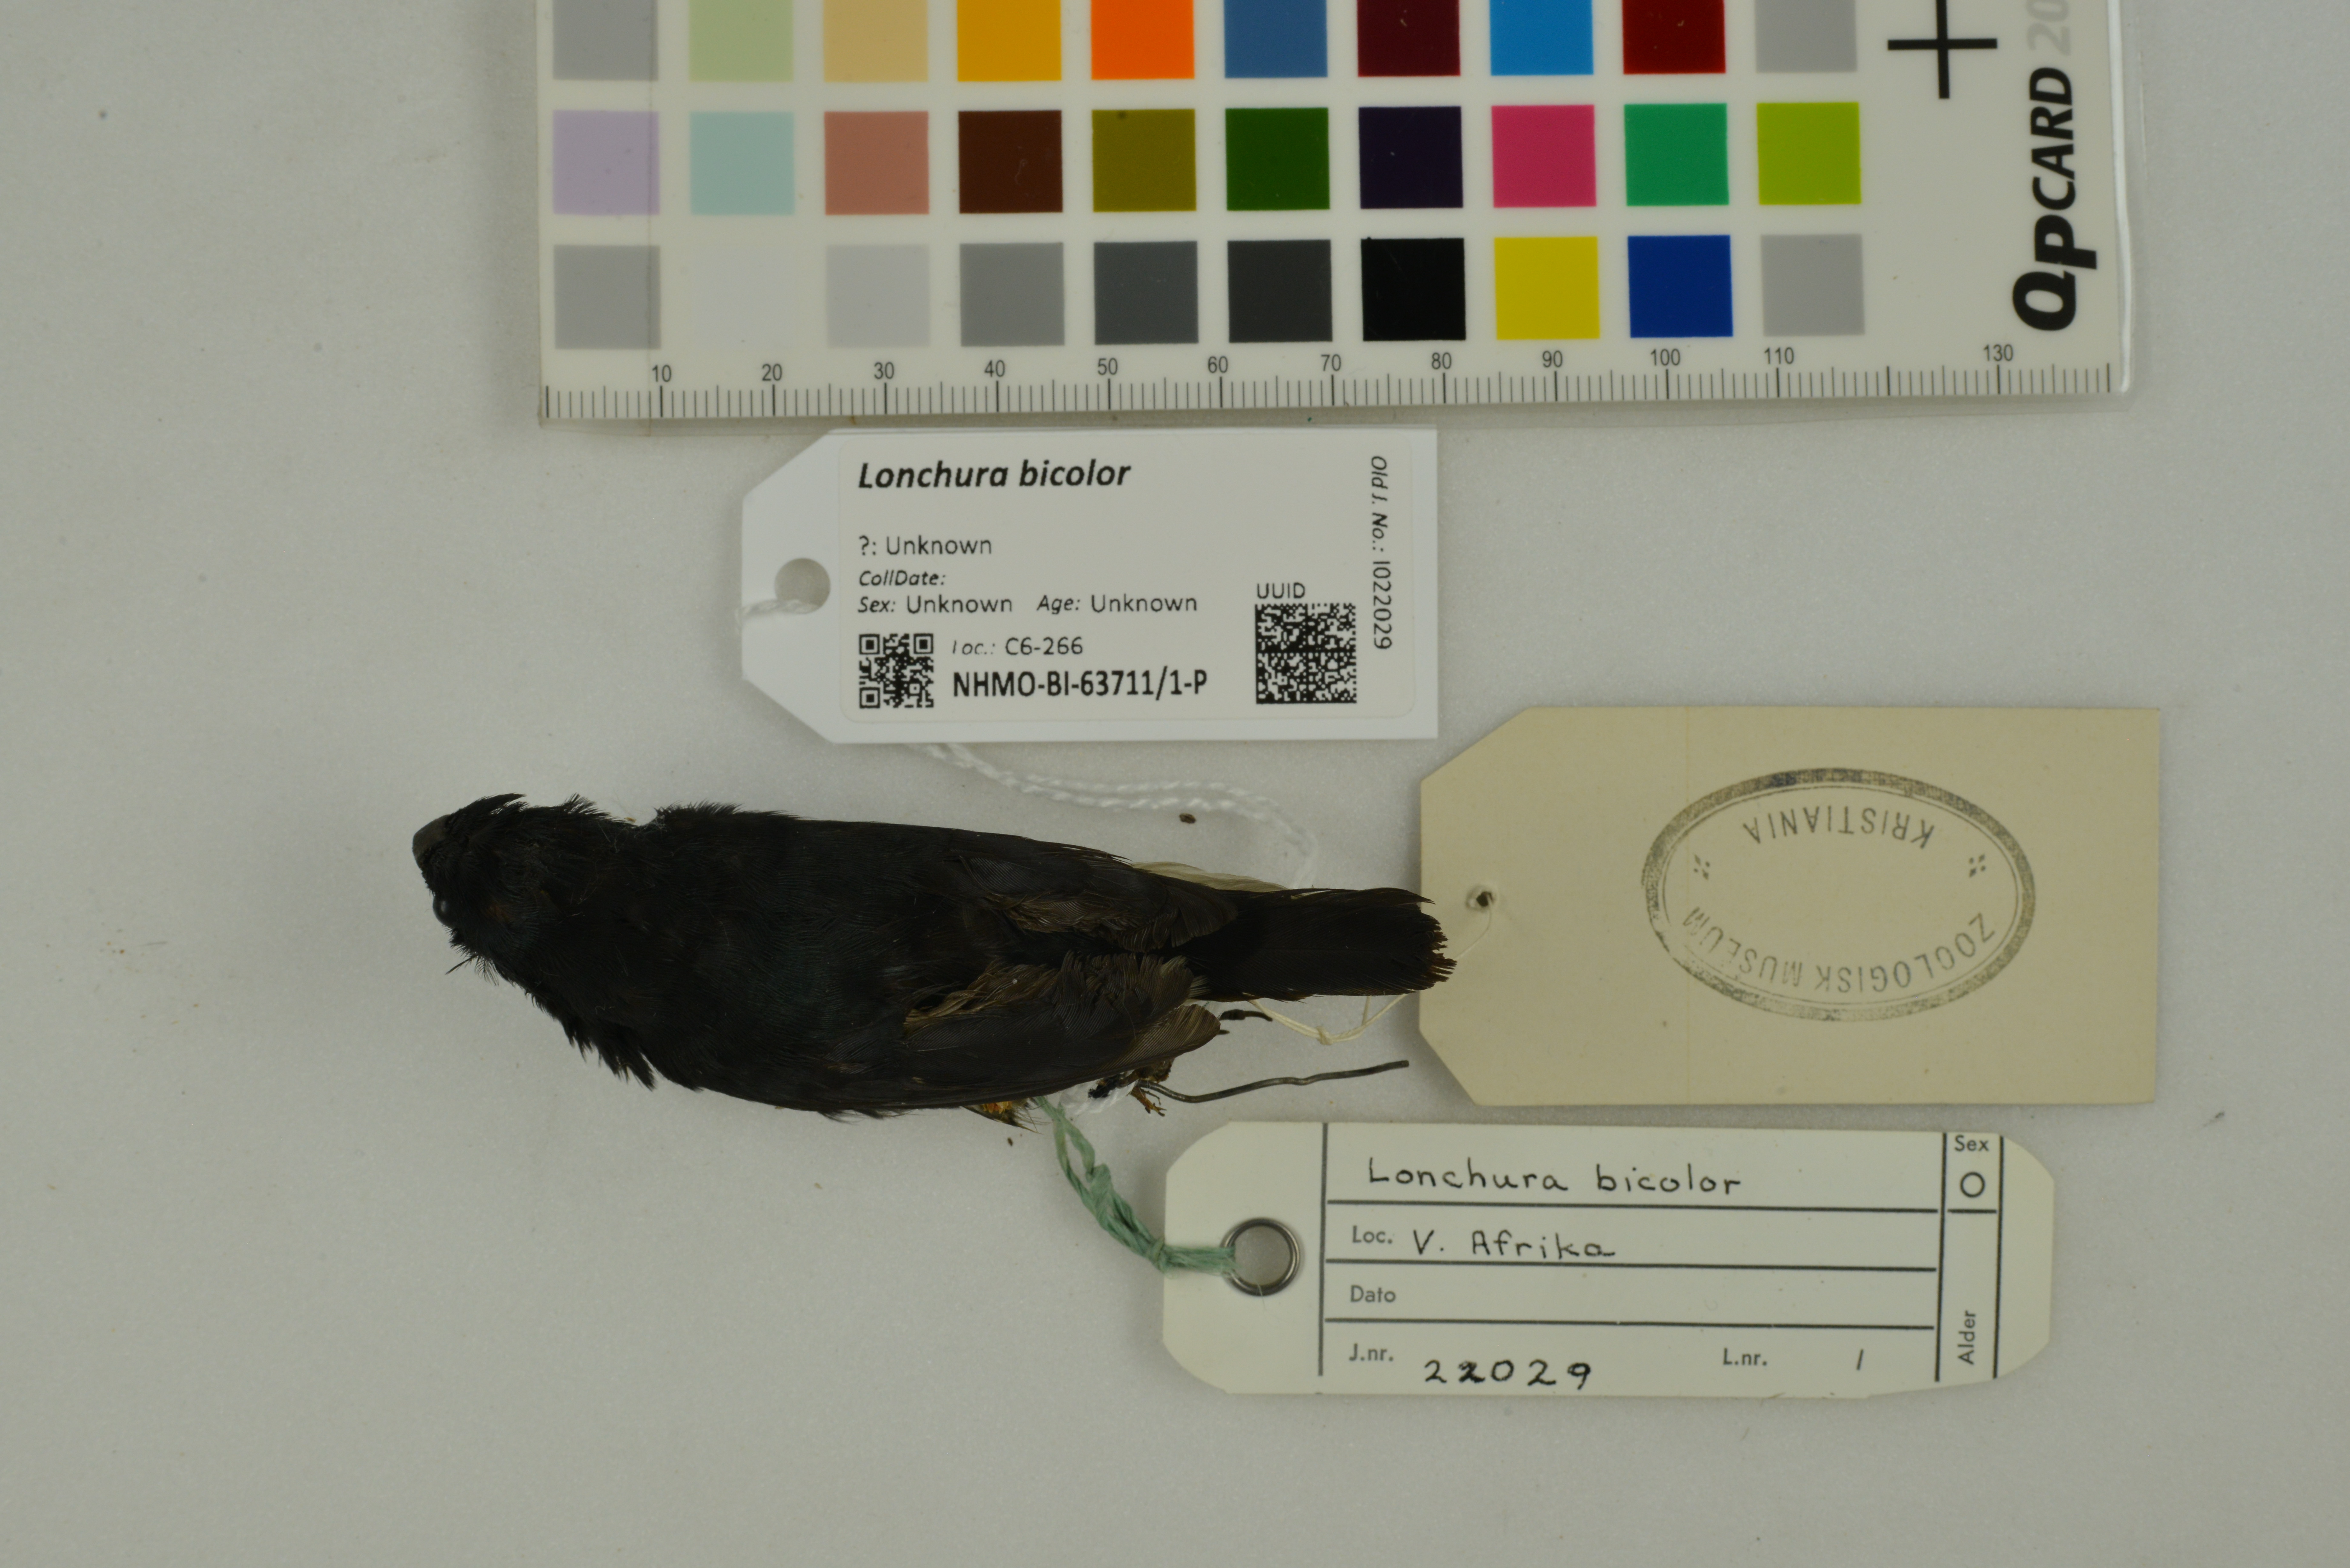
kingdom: Animalia
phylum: Chordata
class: Aves
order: Passeriformes
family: Estrildidae
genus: Lonchura
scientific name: Lonchura bicolor
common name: Black-and-white mannikin
